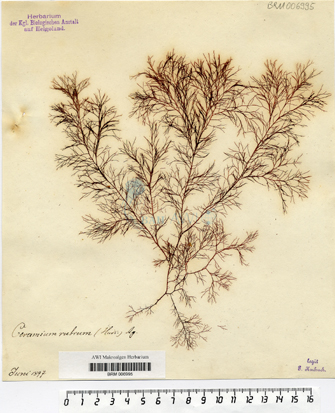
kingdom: Plantae
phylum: Rhodophyta
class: Florideophyceae
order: Ceramiales
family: Ceramiaceae
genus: Ceramium
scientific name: Ceramium virgatum
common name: Red hornweed
